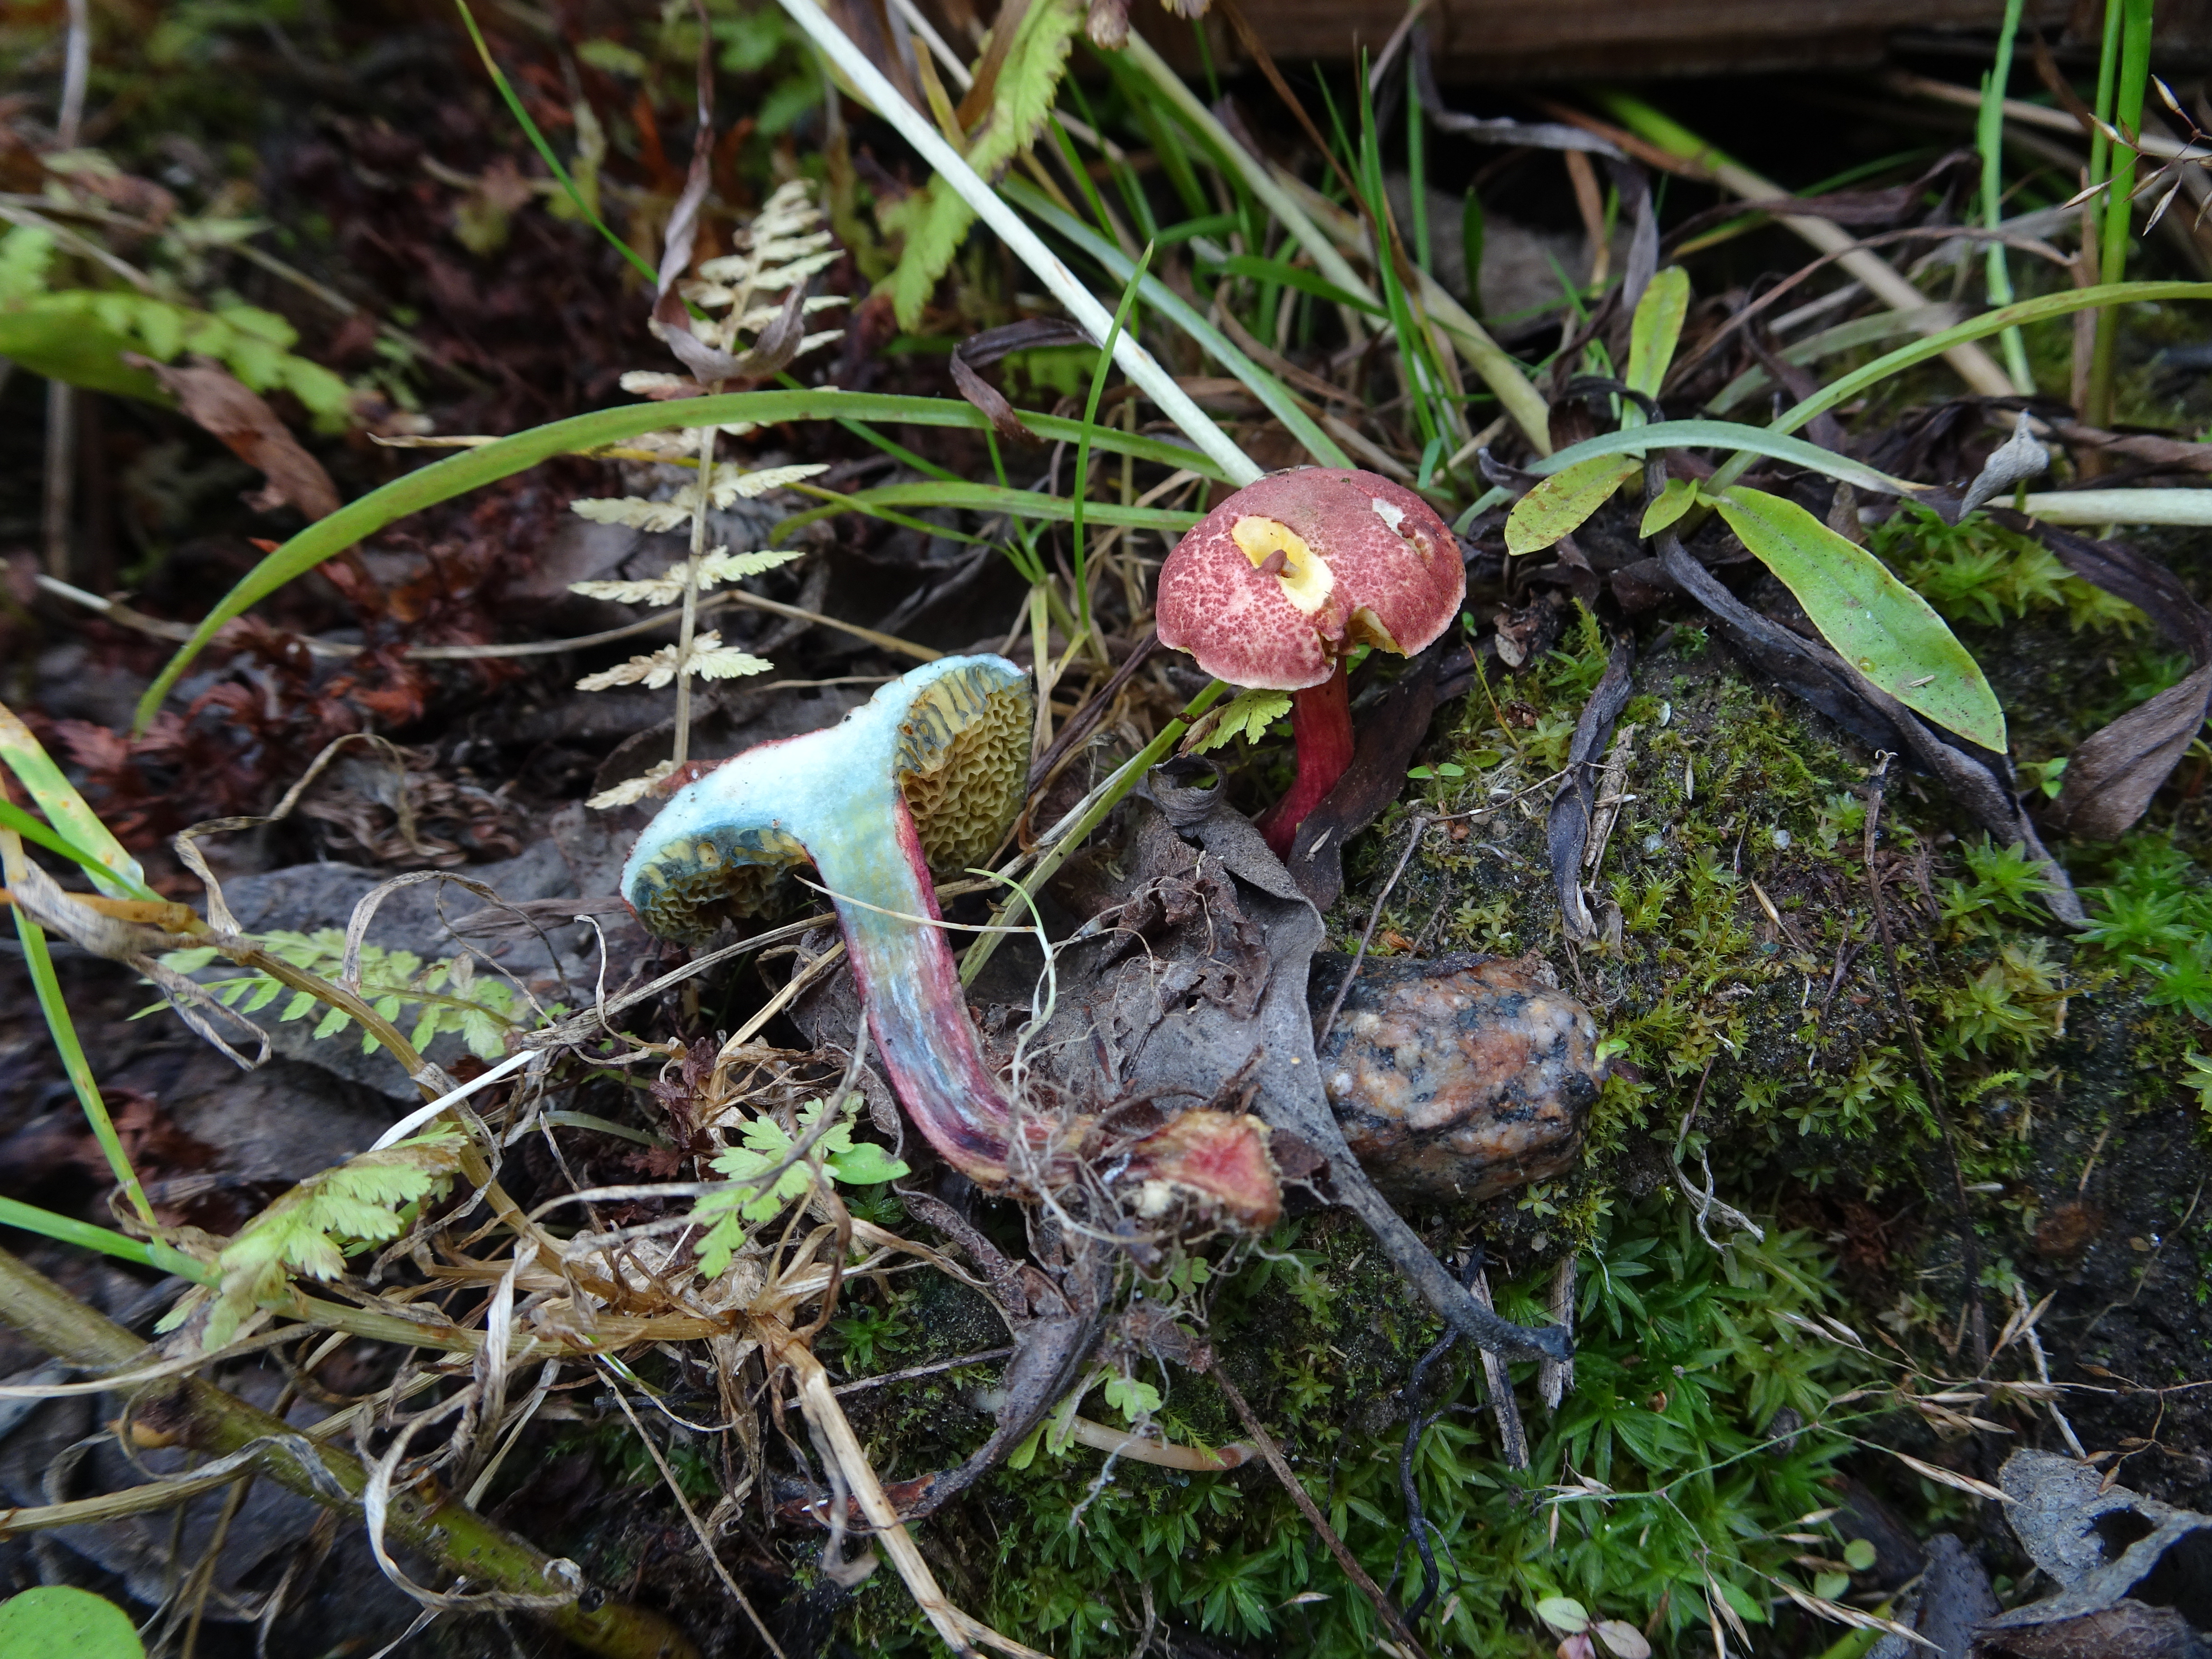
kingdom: Fungi
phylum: Basidiomycota
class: Agaricomycetes
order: Boletales
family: Boletaceae
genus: Xerocomellus
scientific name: Xerocomellus fennicus
